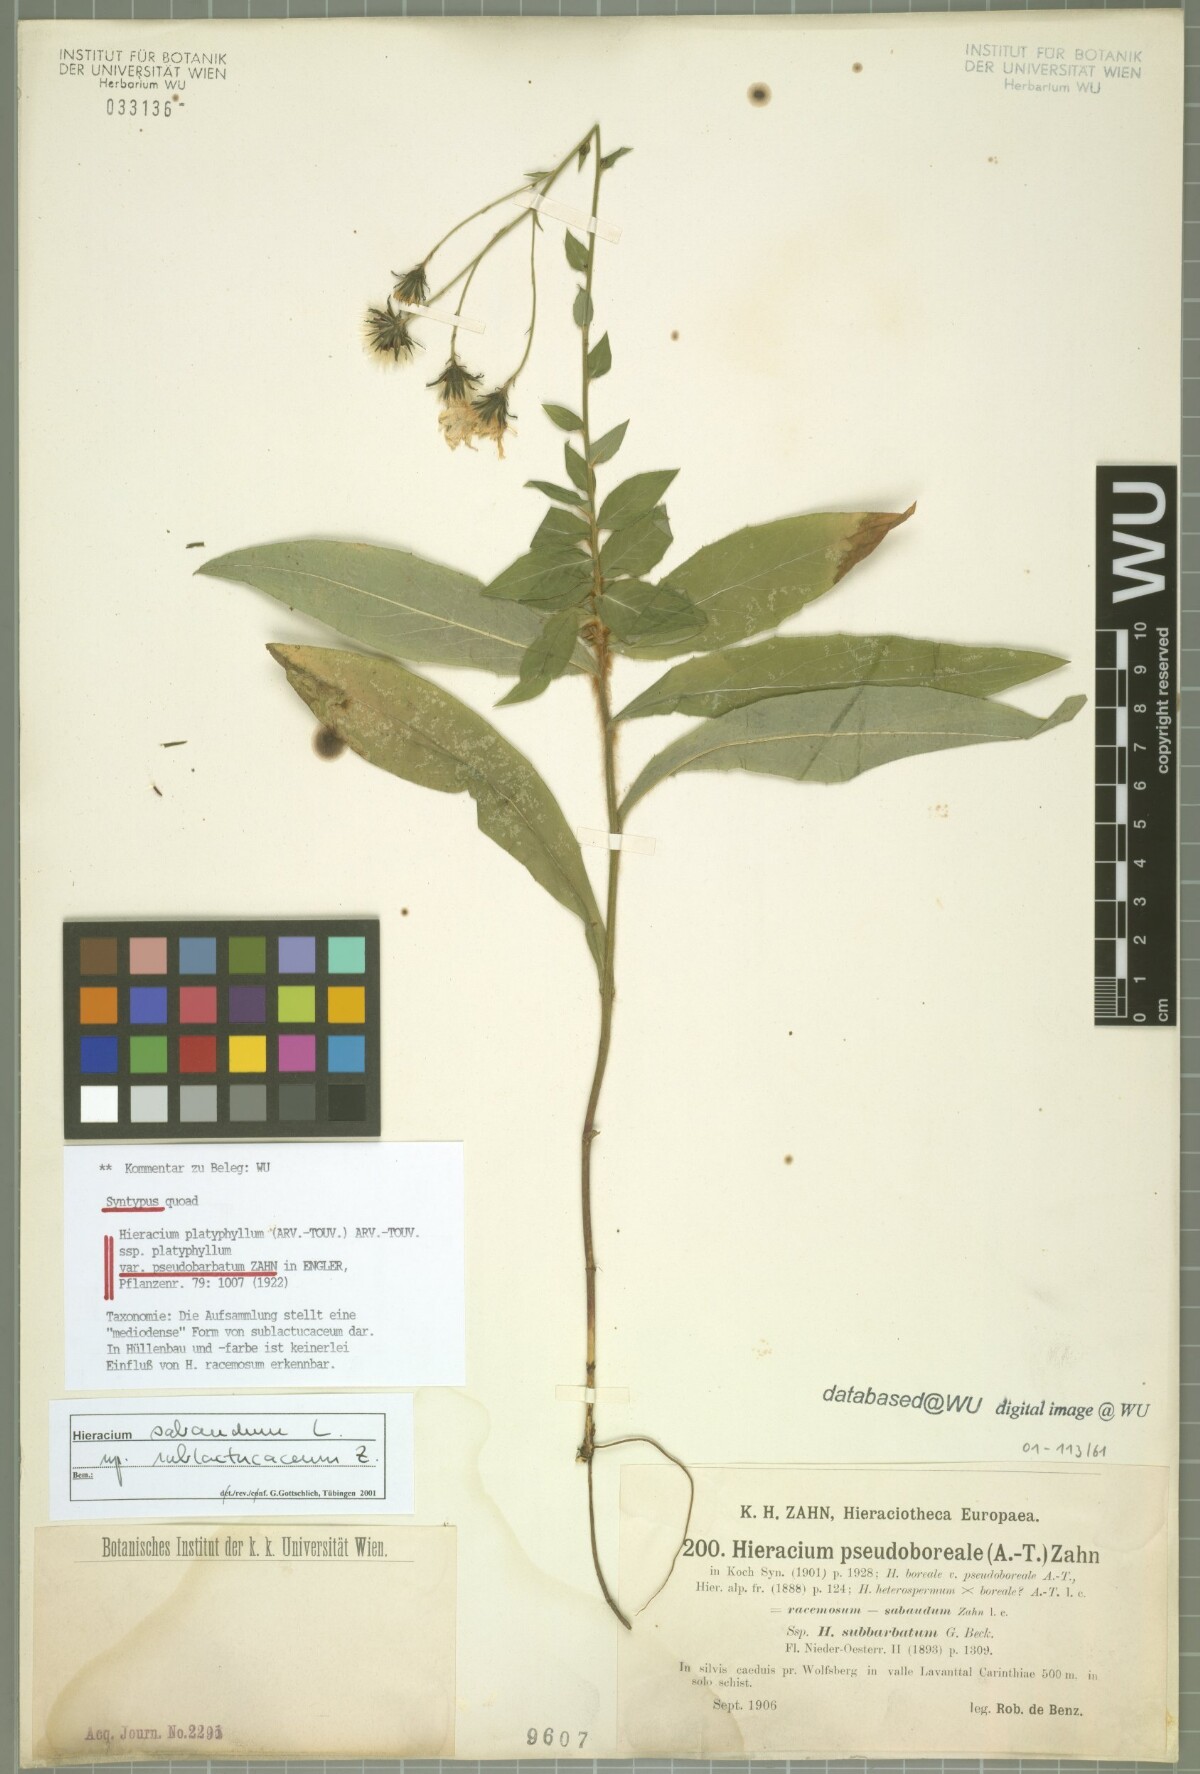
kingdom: Plantae
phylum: Tracheophyta
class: Magnoliopsida
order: Asterales
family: Asteraceae
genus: Hieracium
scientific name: Hieracium
